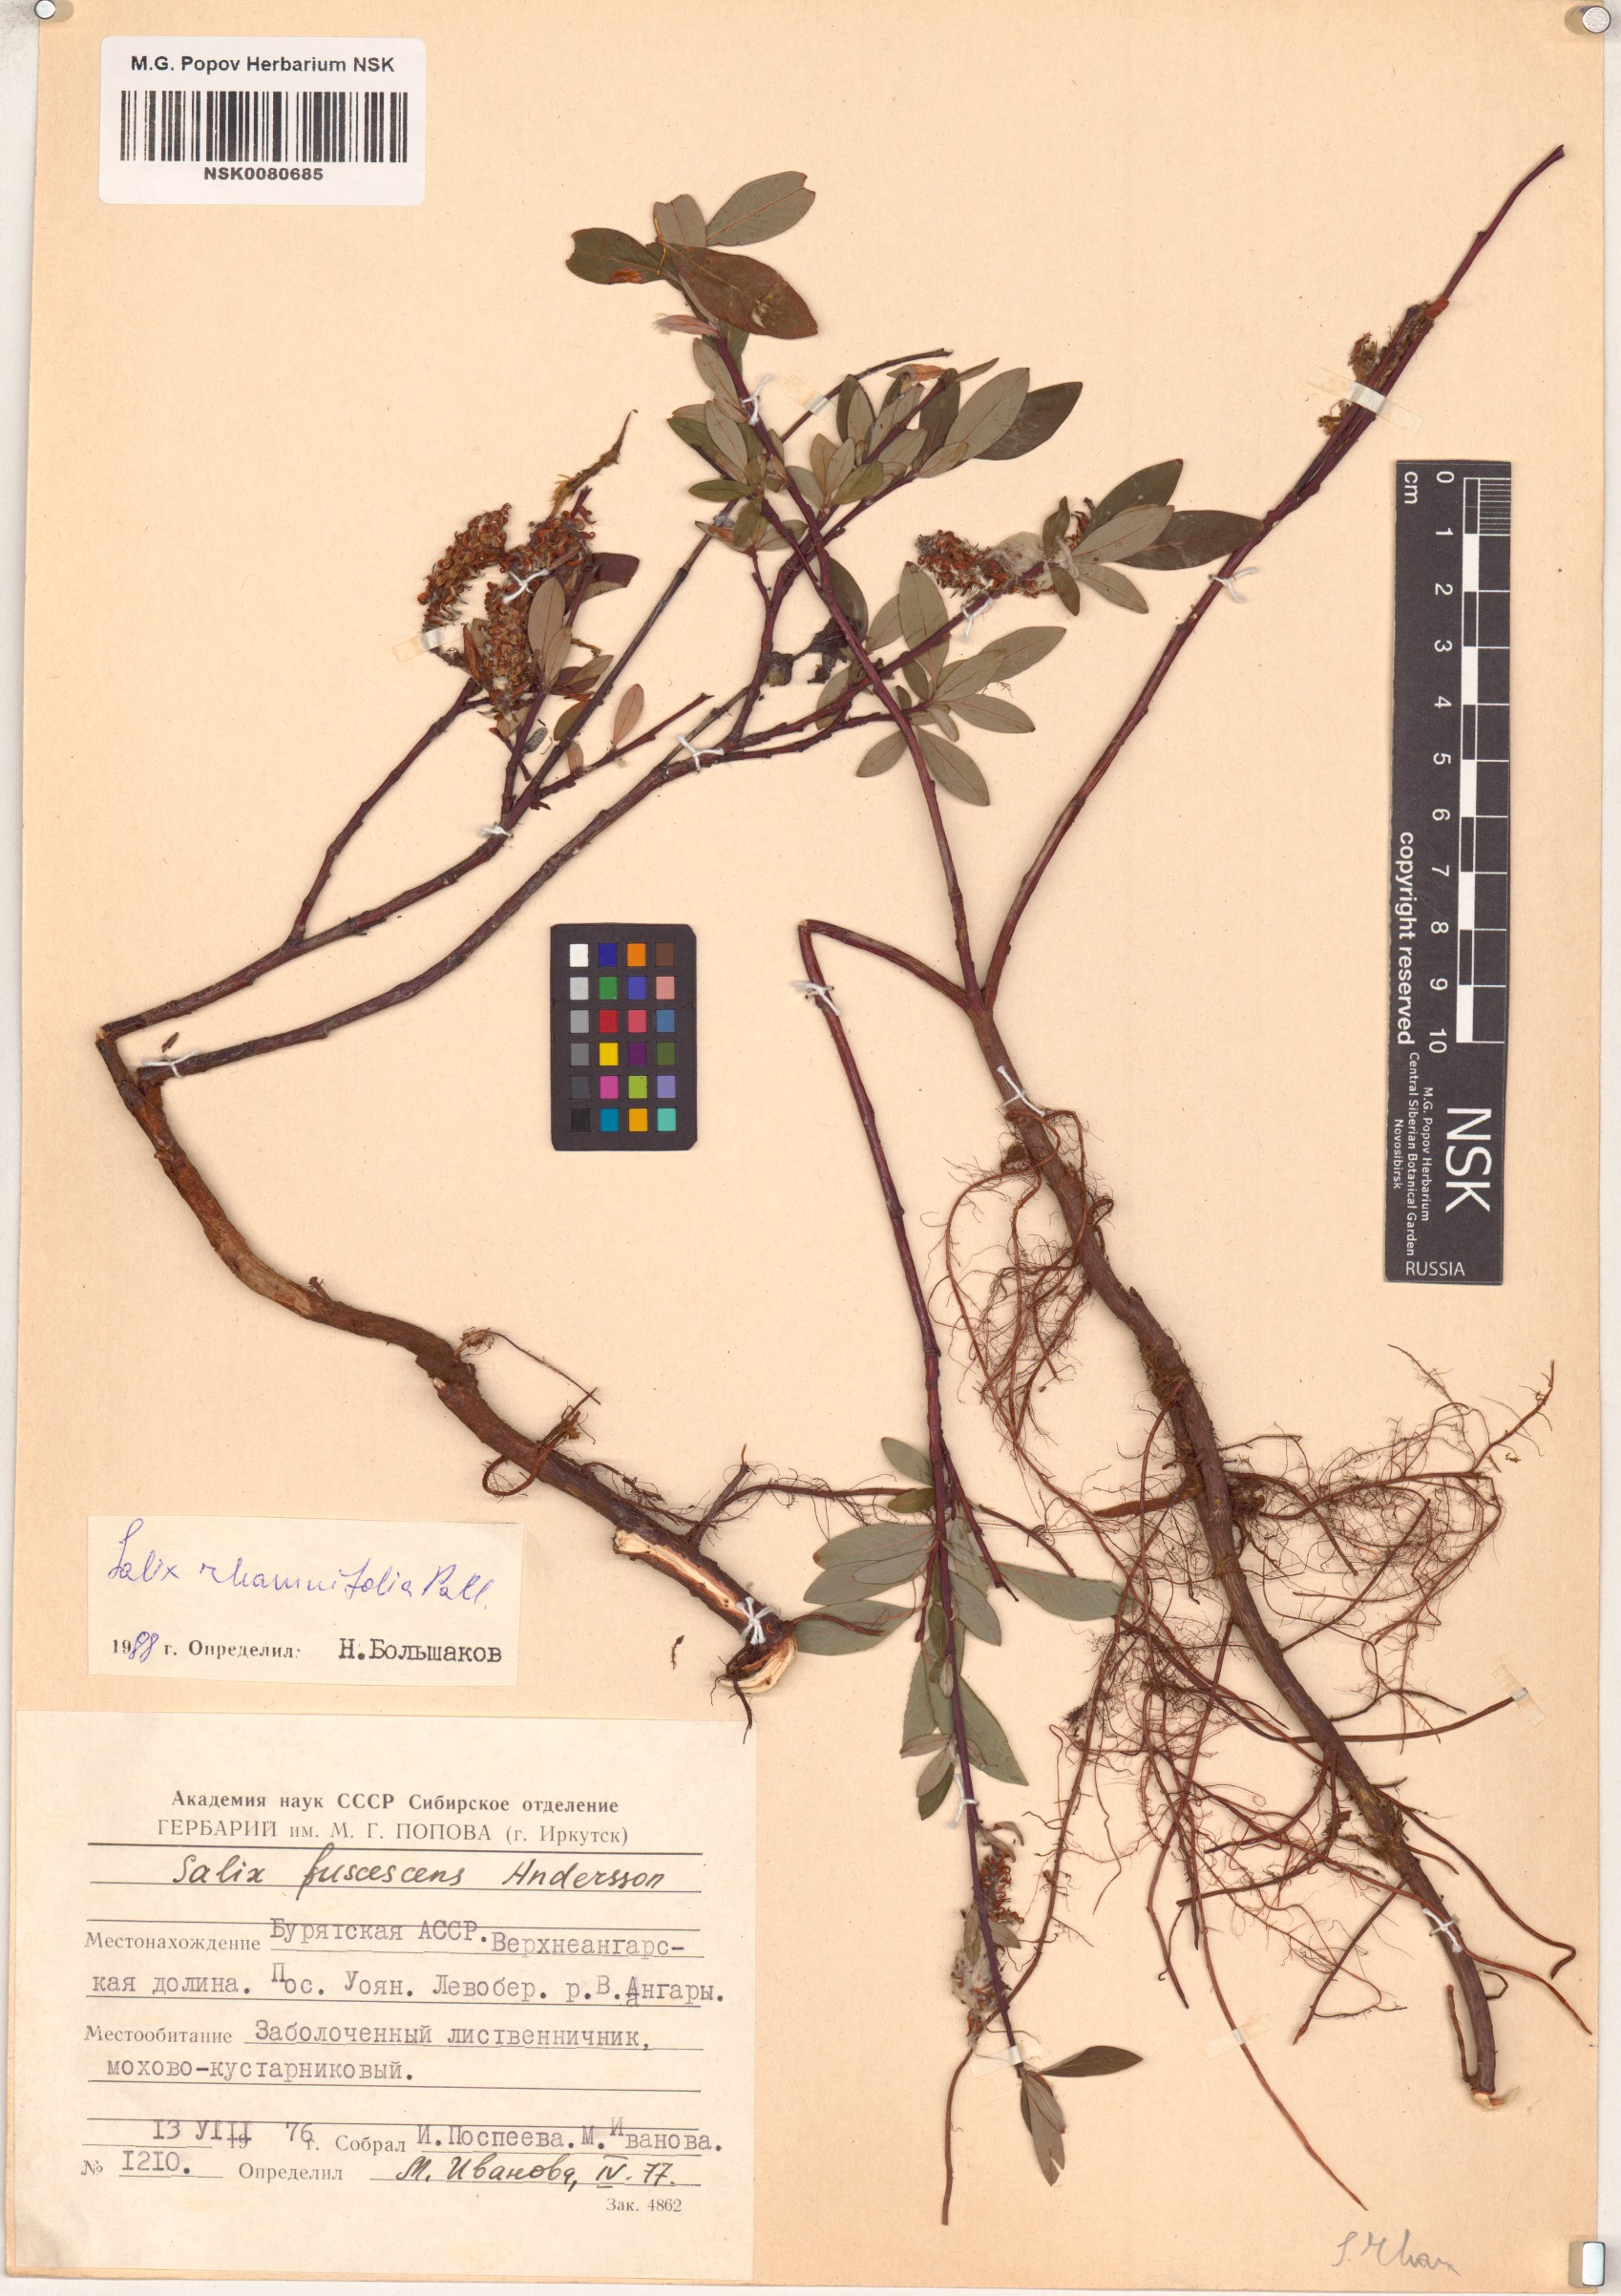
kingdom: Plantae
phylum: Tracheophyta
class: Magnoliopsida
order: Malpighiales
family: Salicaceae
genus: Salix
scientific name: Salix rhamnifolia
